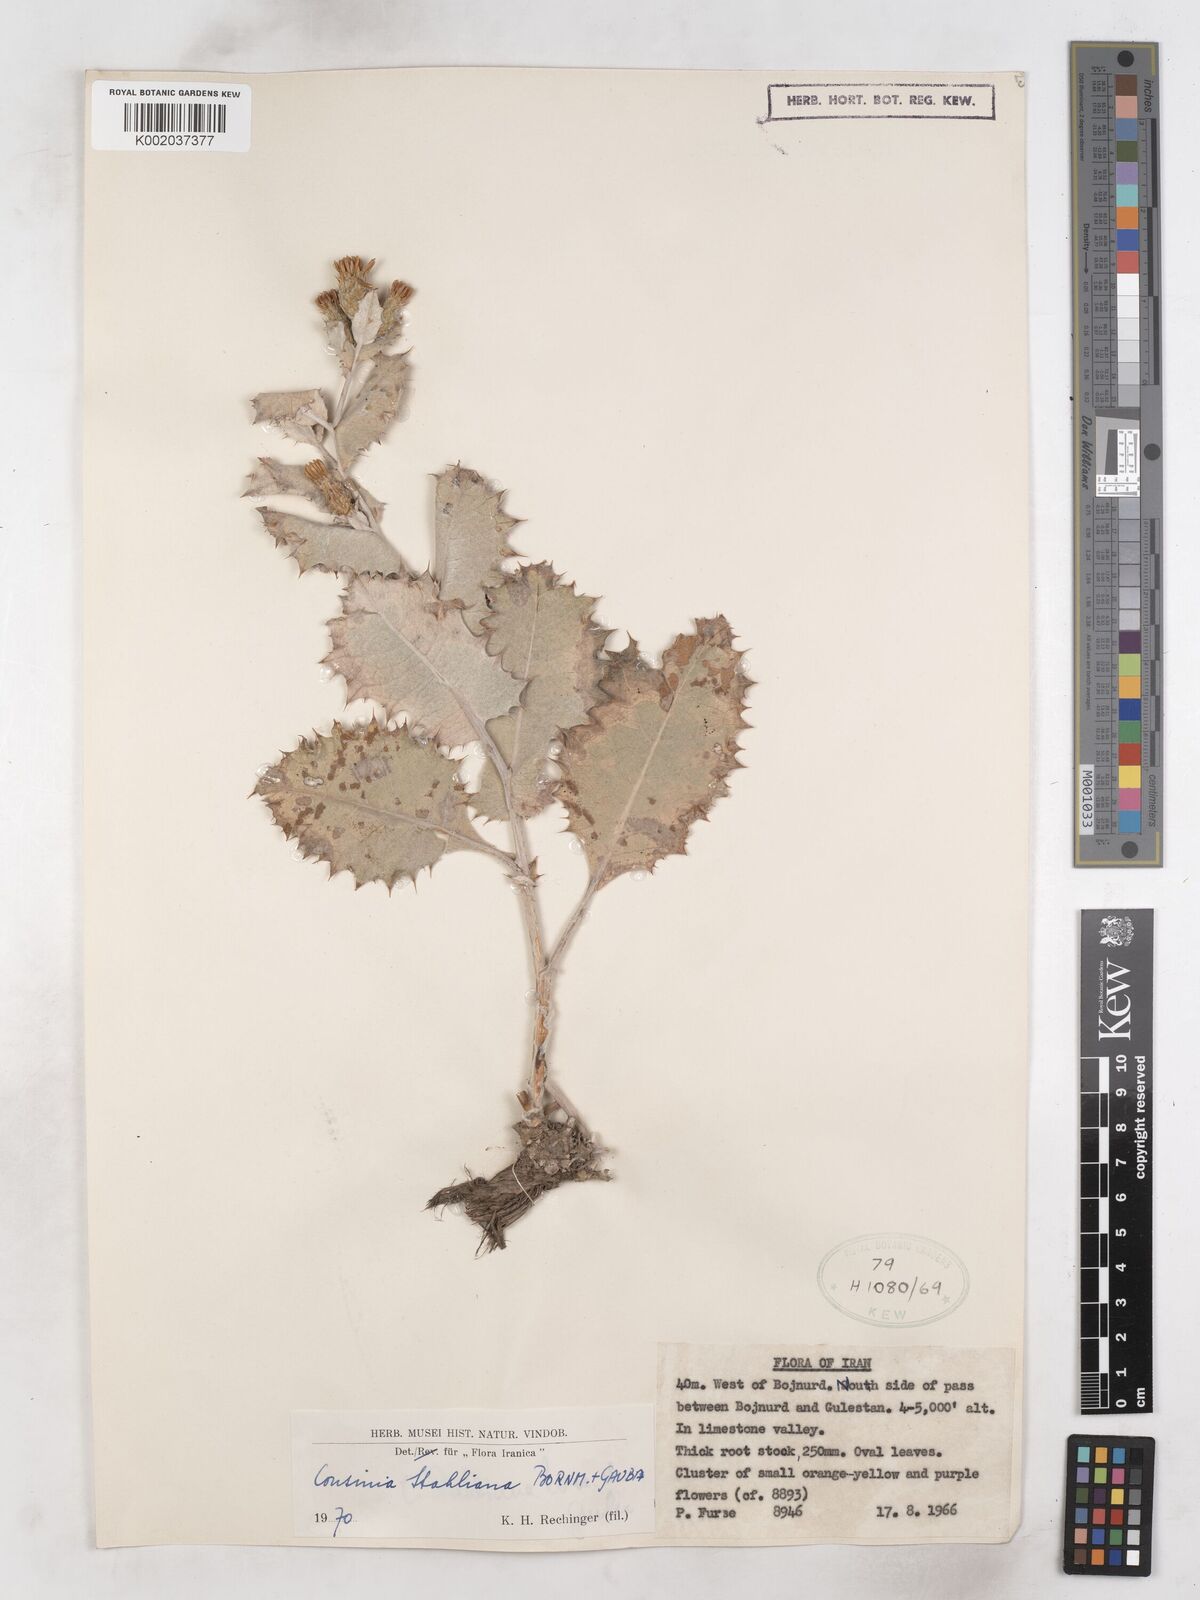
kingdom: Plantae
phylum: Tracheophyta
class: Magnoliopsida
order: Asterales
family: Asteraceae
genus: Cousinia
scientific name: Cousinia stahliana
